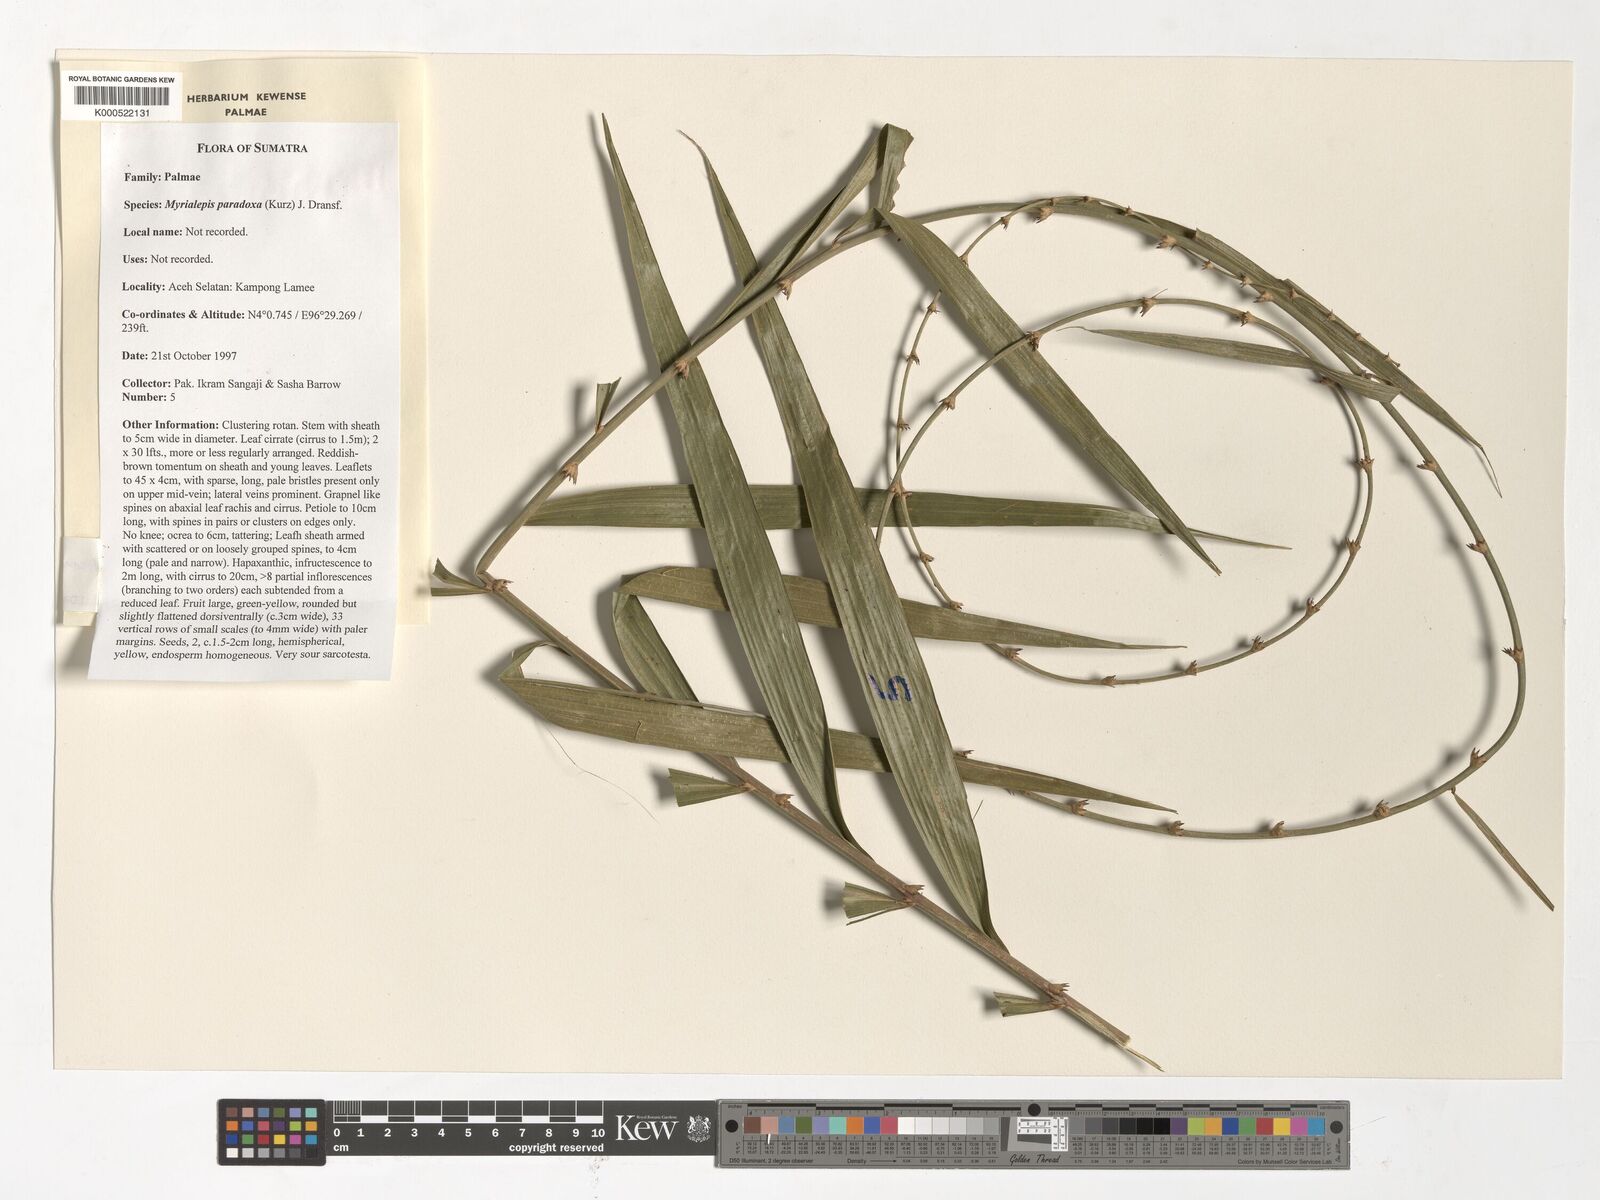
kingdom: Plantae
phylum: Tracheophyta
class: Liliopsida
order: Arecales
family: Arecaceae
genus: Plectocomiopsis
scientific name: Plectocomiopsis geminiflora
